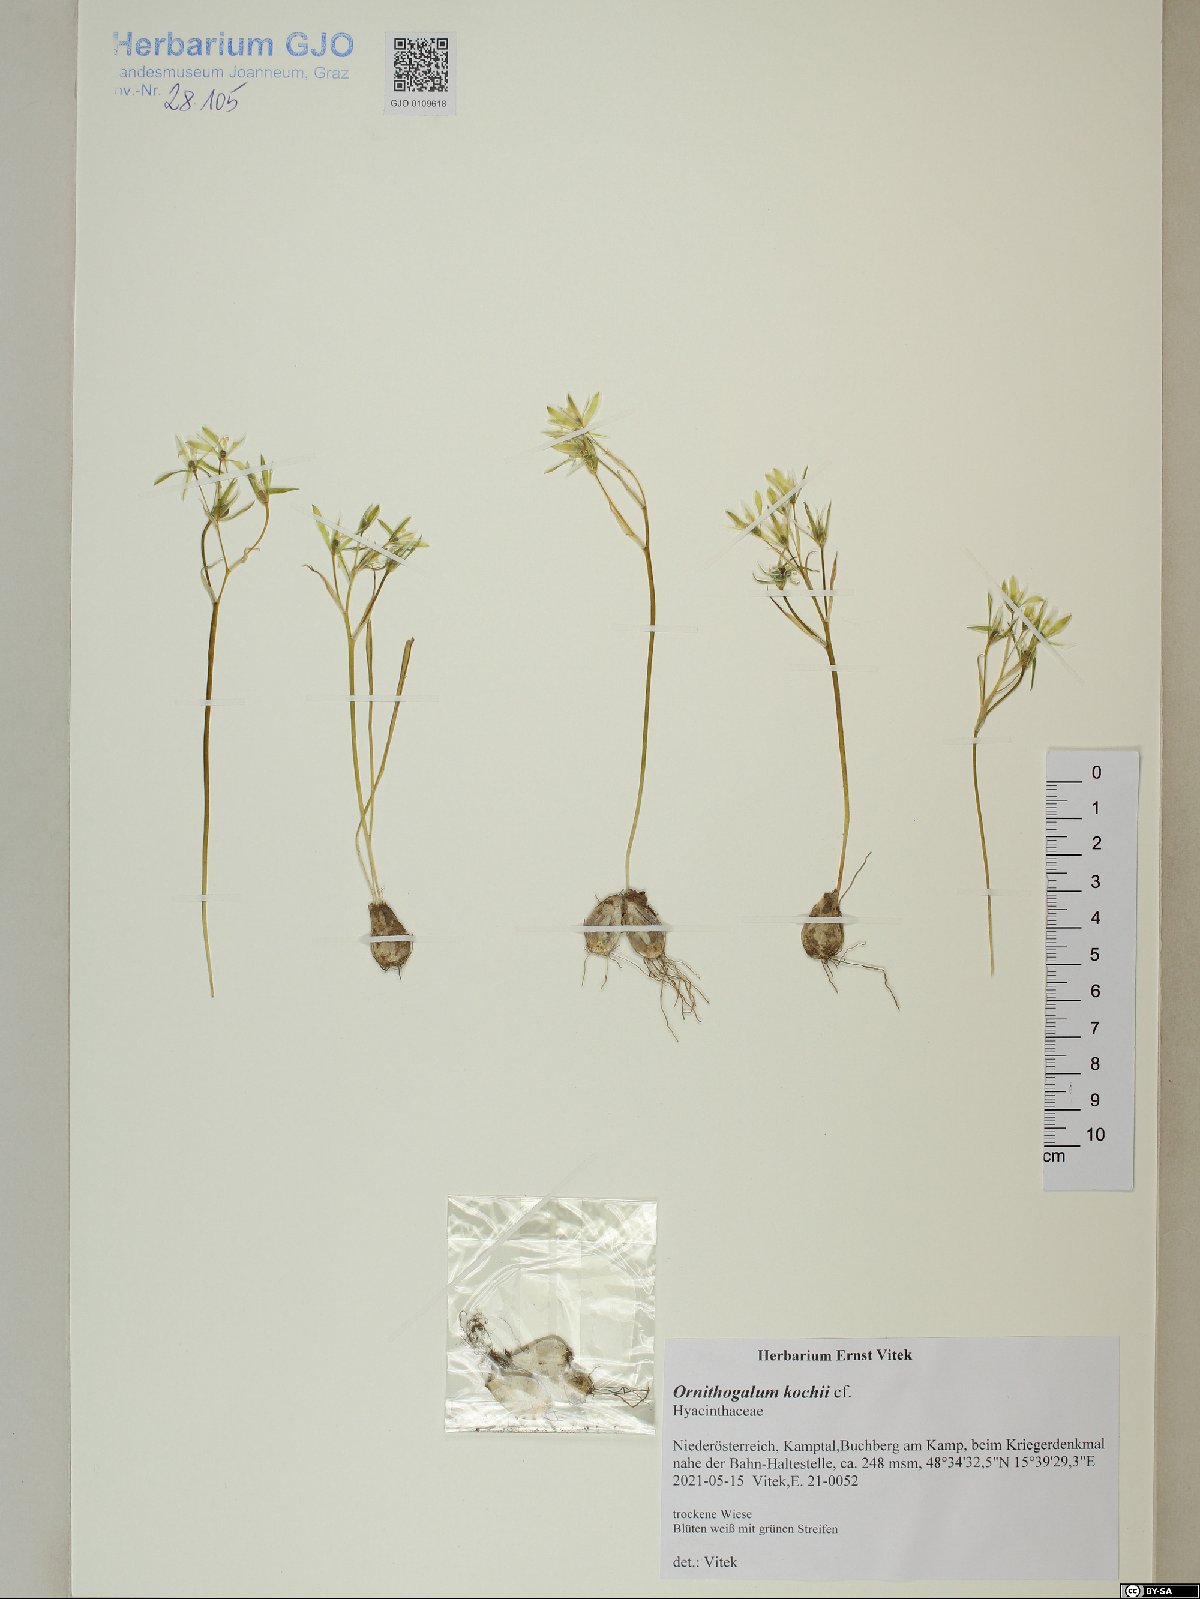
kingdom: Plantae
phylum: Tracheophyta
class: Liliopsida
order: Asparagales
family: Asparagaceae
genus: Ornithogalum
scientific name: Ornithogalum orthophyllum
